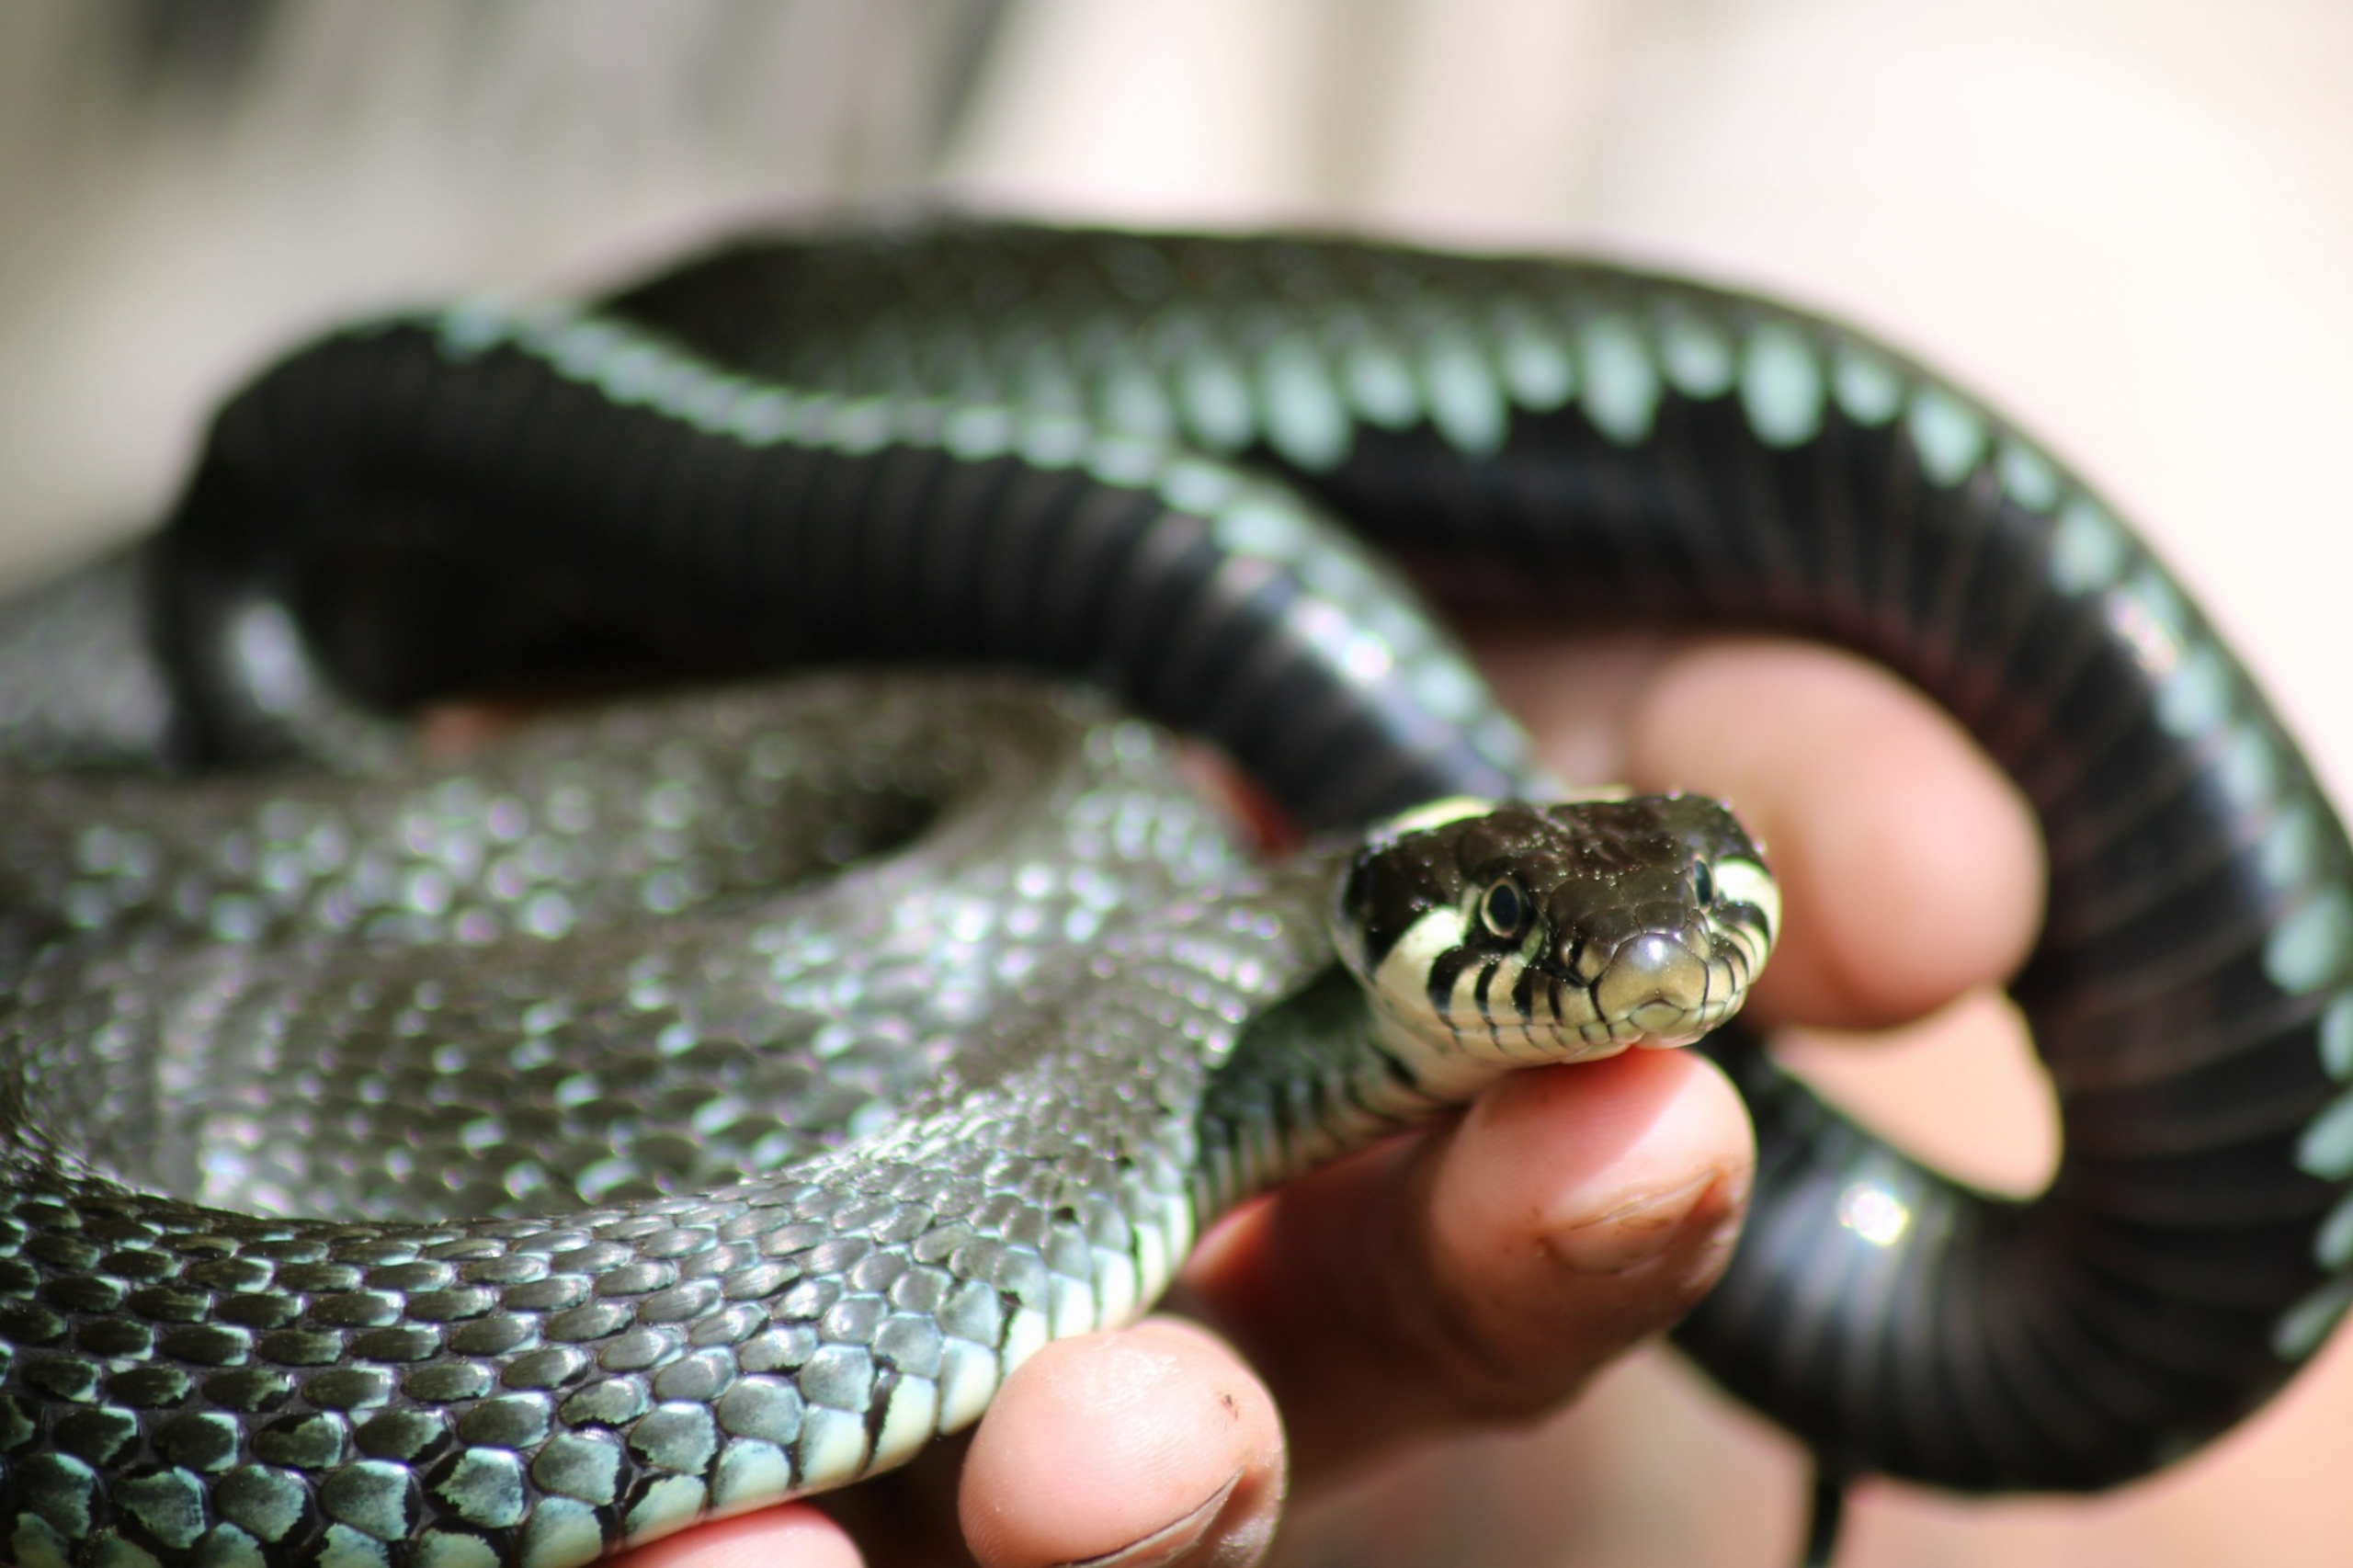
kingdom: Animalia
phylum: Chordata
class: Squamata
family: Colubridae
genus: Natrix
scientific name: Natrix natrix
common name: Snog
